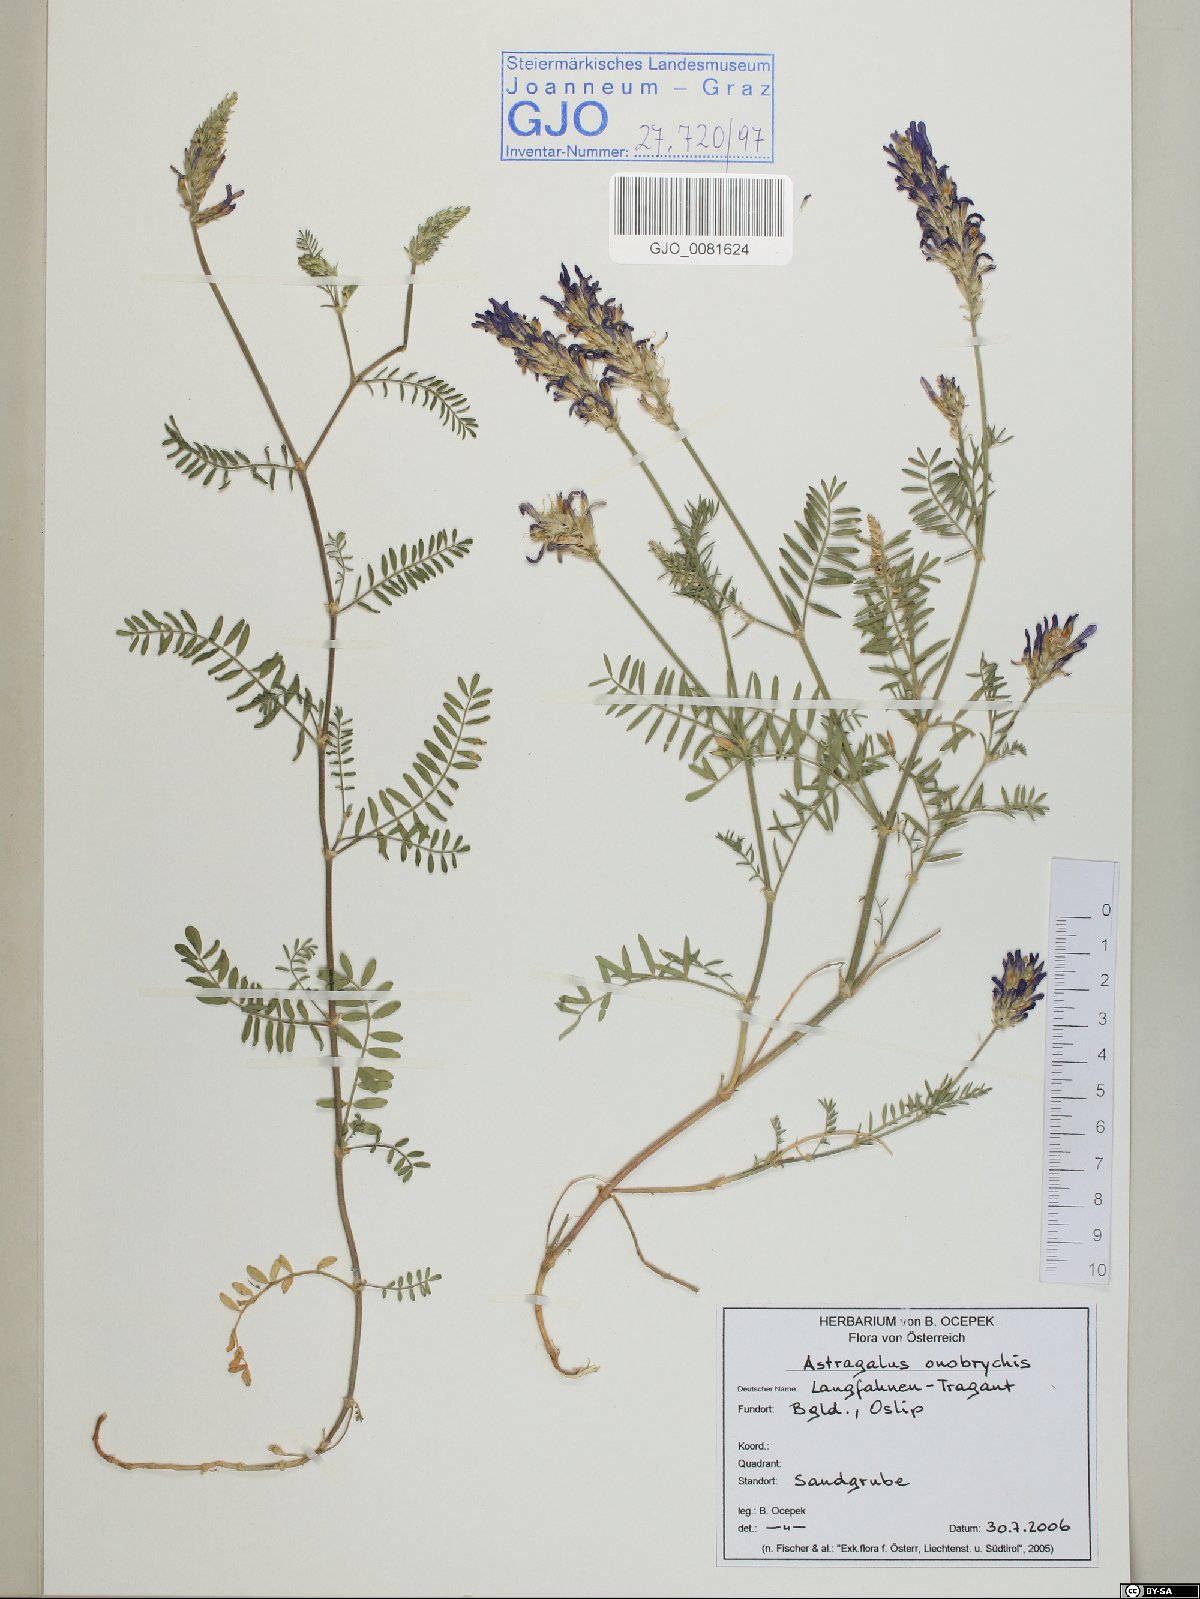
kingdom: Plantae
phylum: Tracheophyta
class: Magnoliopsida
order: Fabales
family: Fabaceae
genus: Astragalus
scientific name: Astragalus onobrychis
